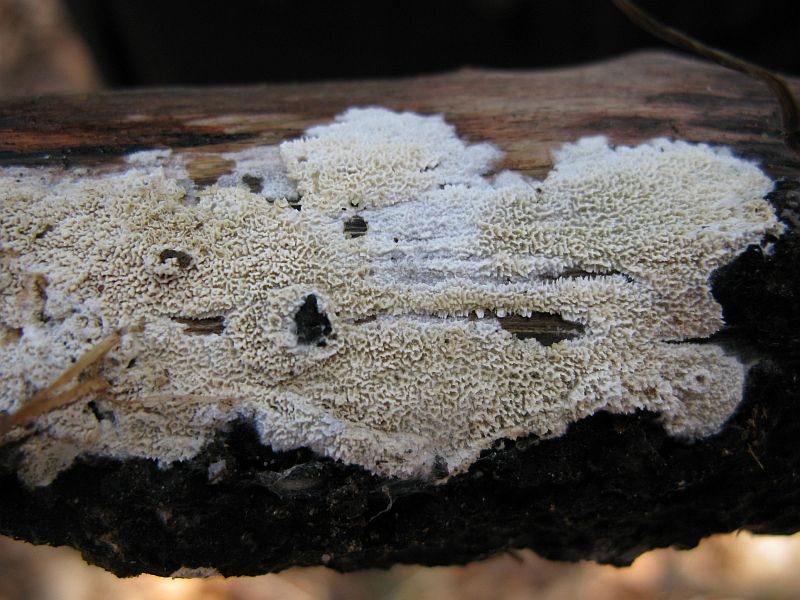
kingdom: Fungi
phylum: Basidiomycota
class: Agaricomycetes
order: Hymenochaetales
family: Schizoporaceae
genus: Schizopora
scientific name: Schizopora paradoxa
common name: hvid tandsvamp
